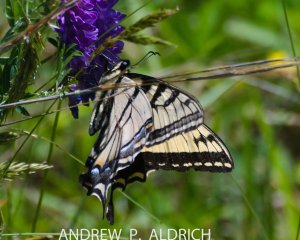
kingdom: Animalia
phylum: Arthropoda
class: Insecta
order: Lepidoptera
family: Papilionidae
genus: Pterourus
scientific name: Pterourus canadensis
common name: Canadian Tiger Swallowtail
